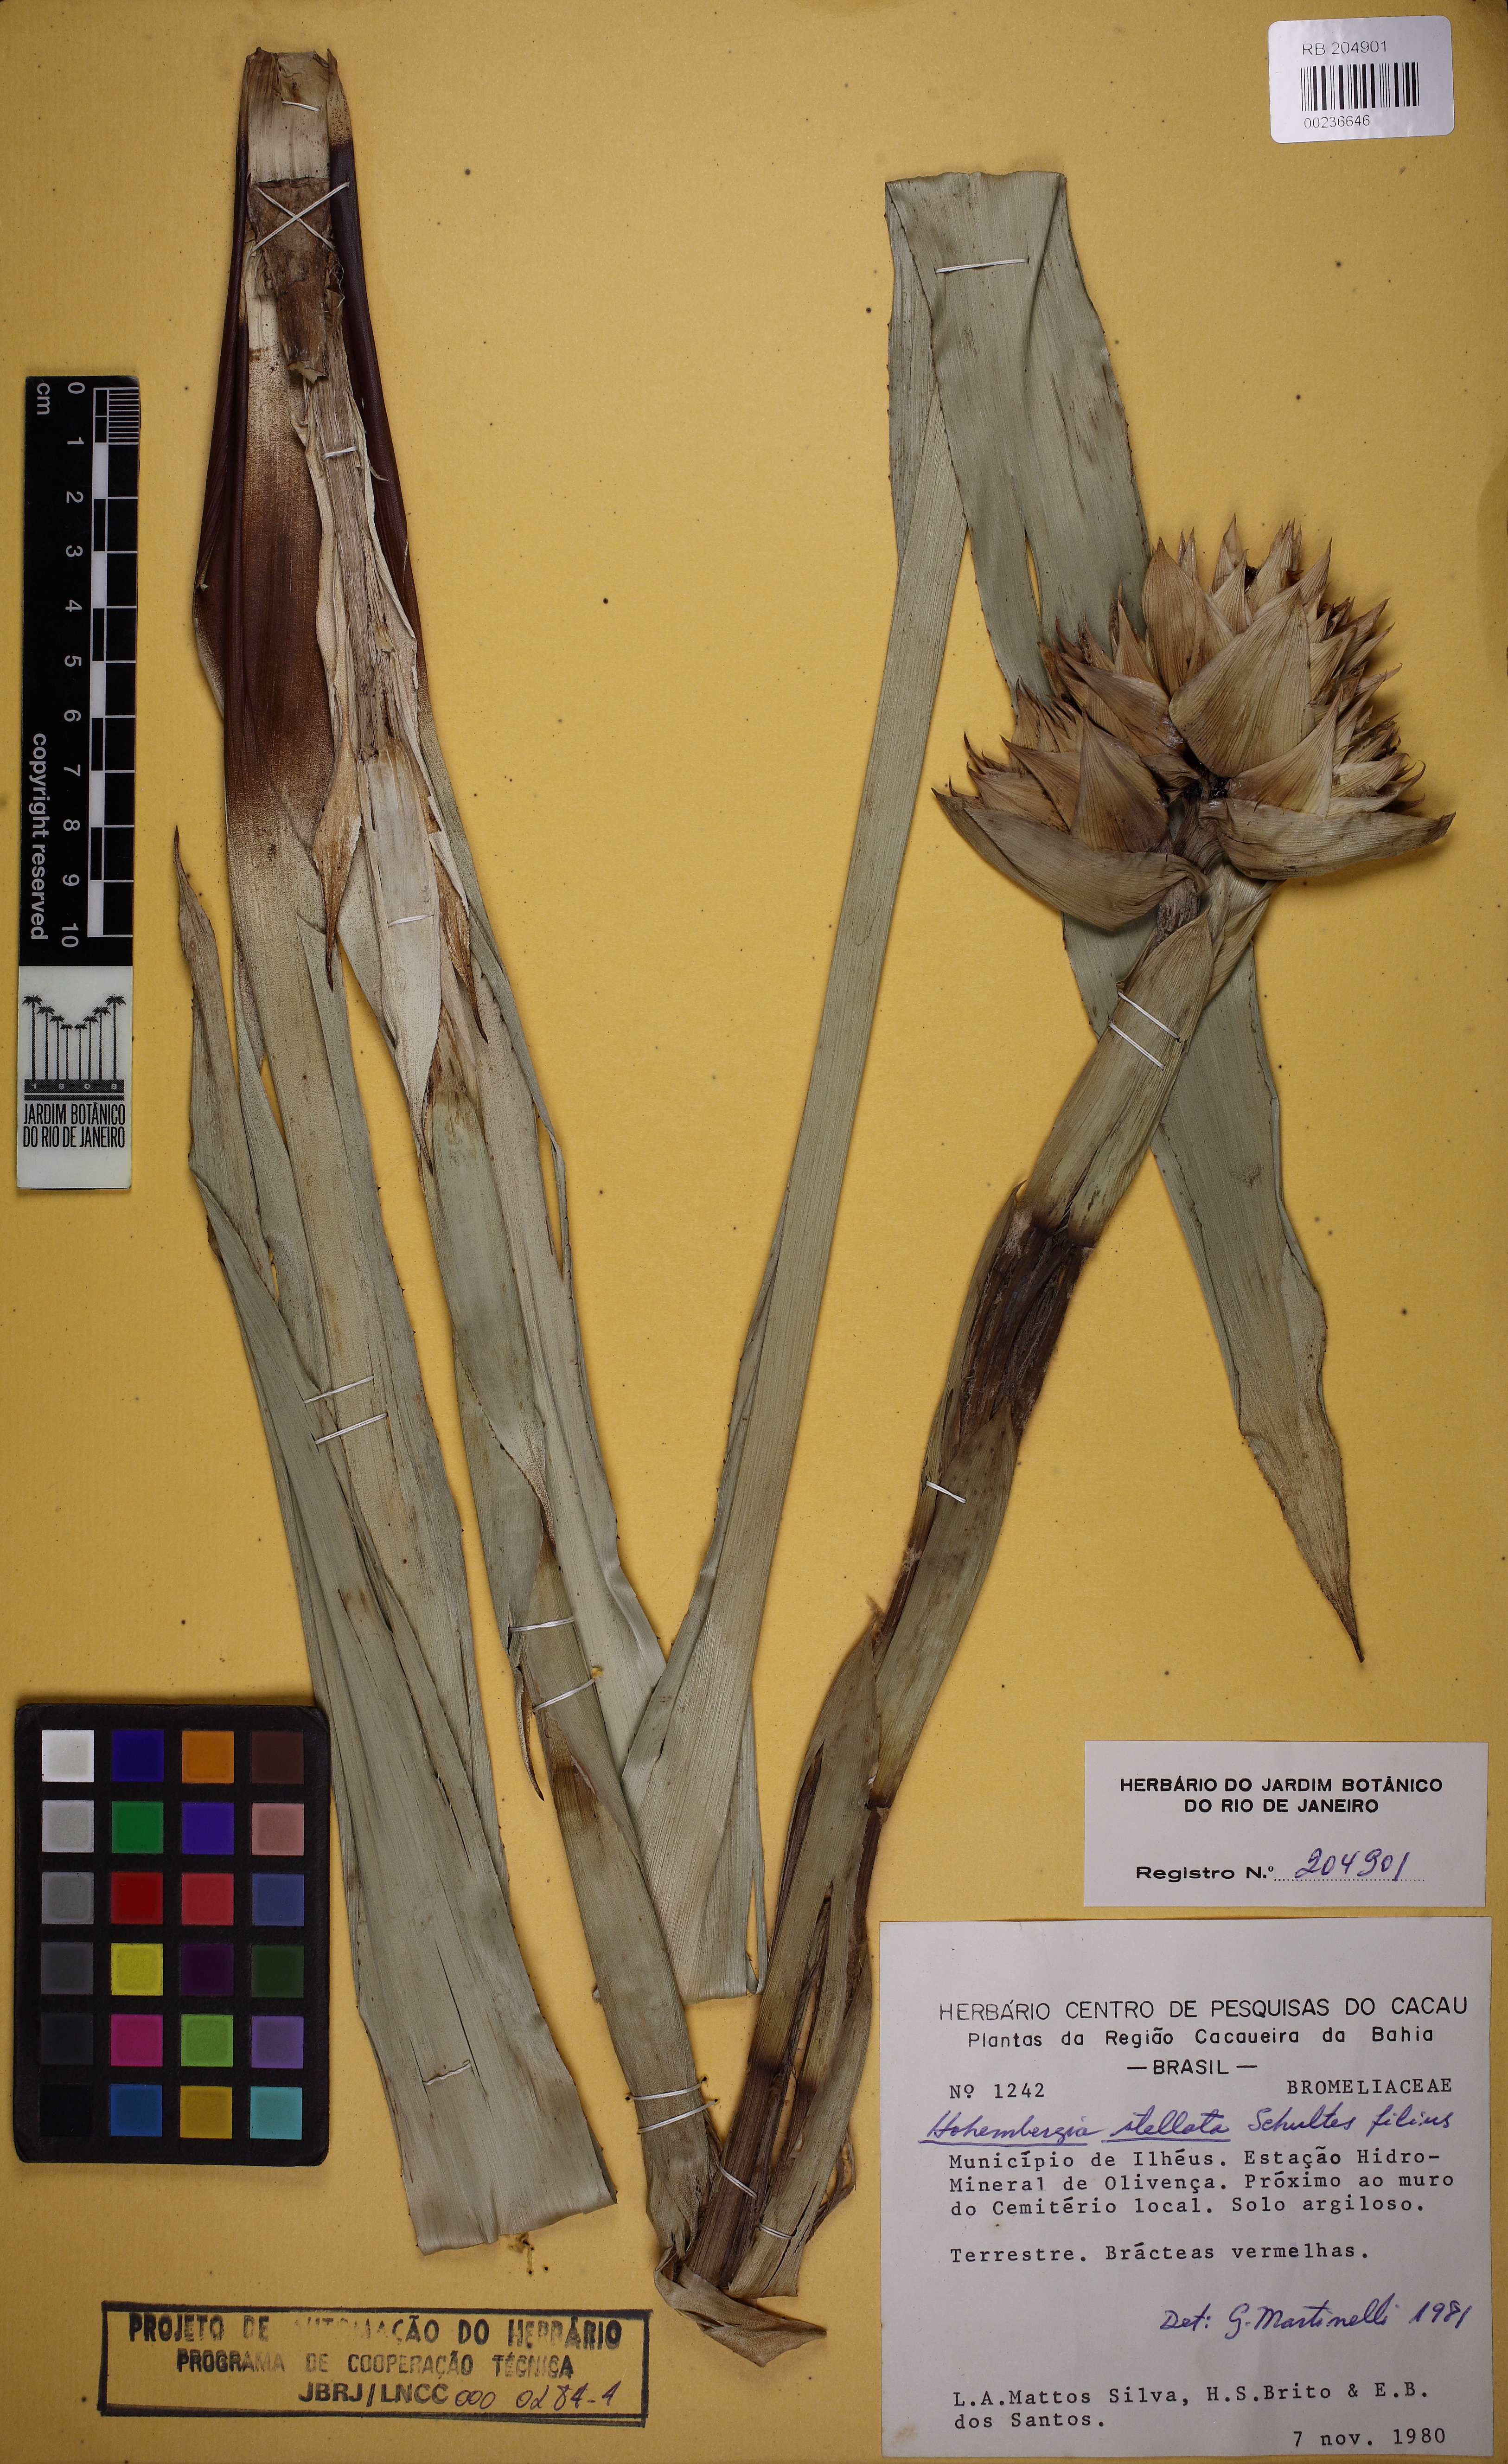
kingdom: Plantae
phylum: Tracheophyta
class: Liliopsida
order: Poales
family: Bromeliaceae
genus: Hohenbergia
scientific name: Hohenbergia belemii
